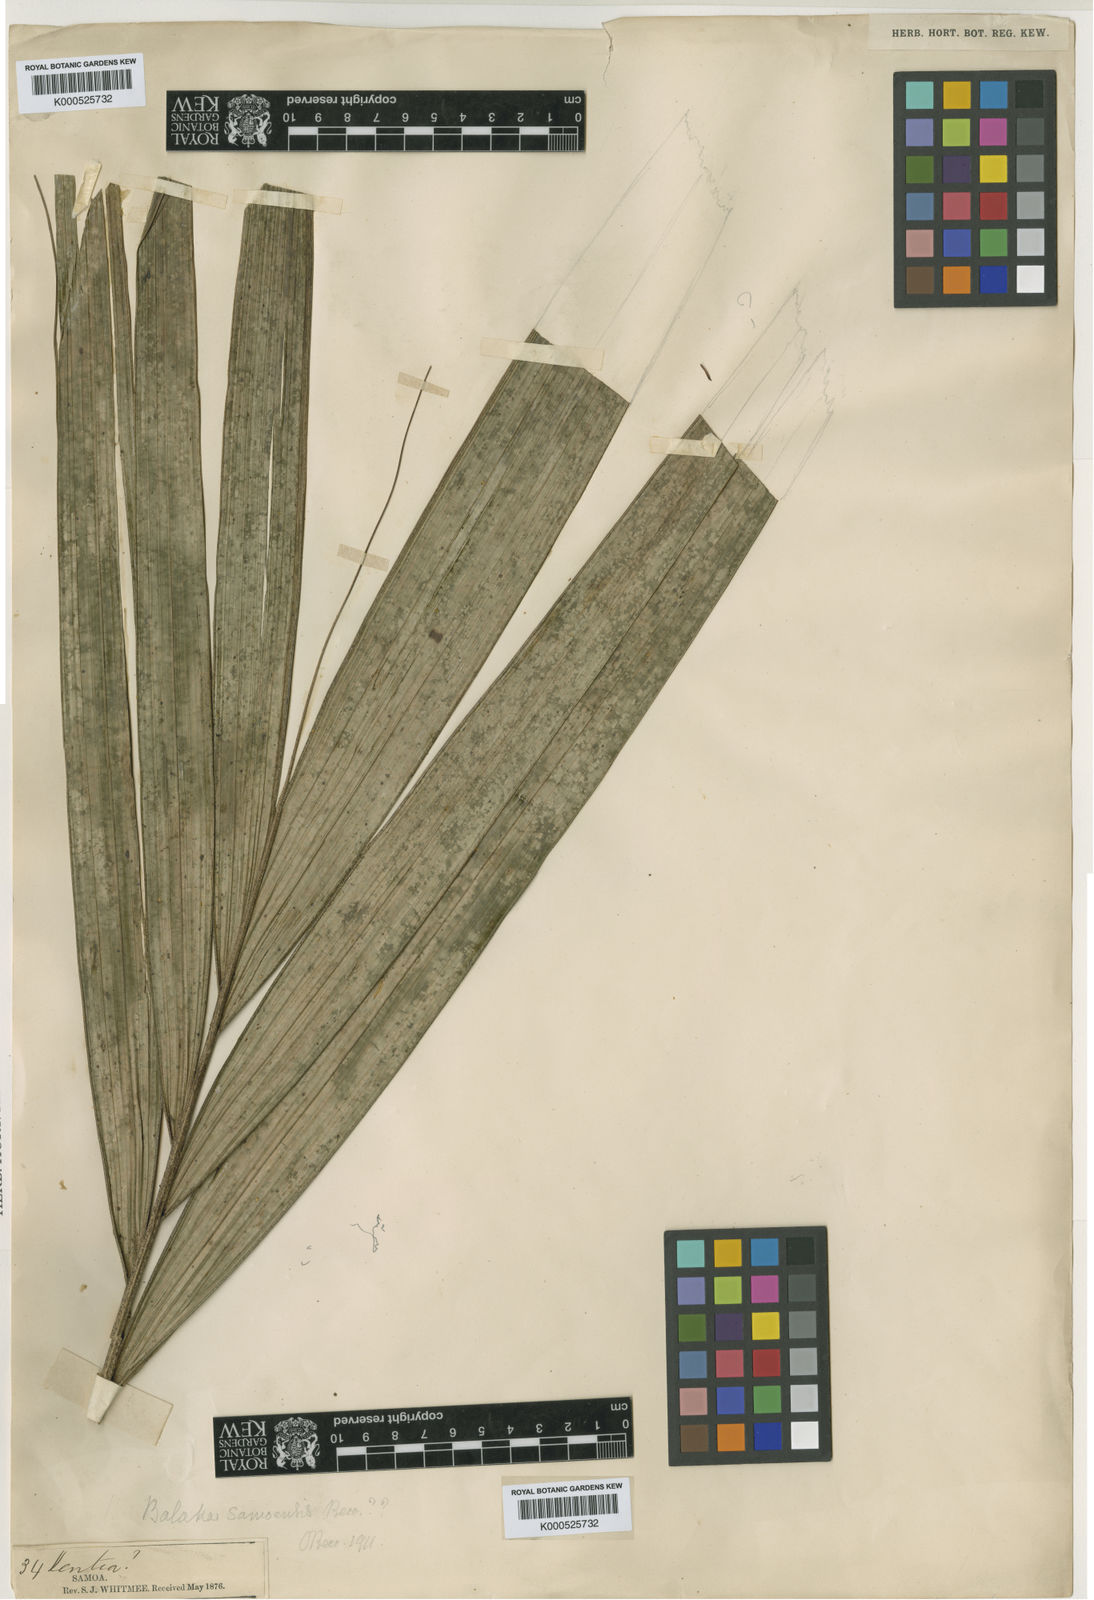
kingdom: Plantae
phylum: Tracheophyta
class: Liliopsida
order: Arecales
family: Arecaceae
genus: Balaka
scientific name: Balaka samoensis
